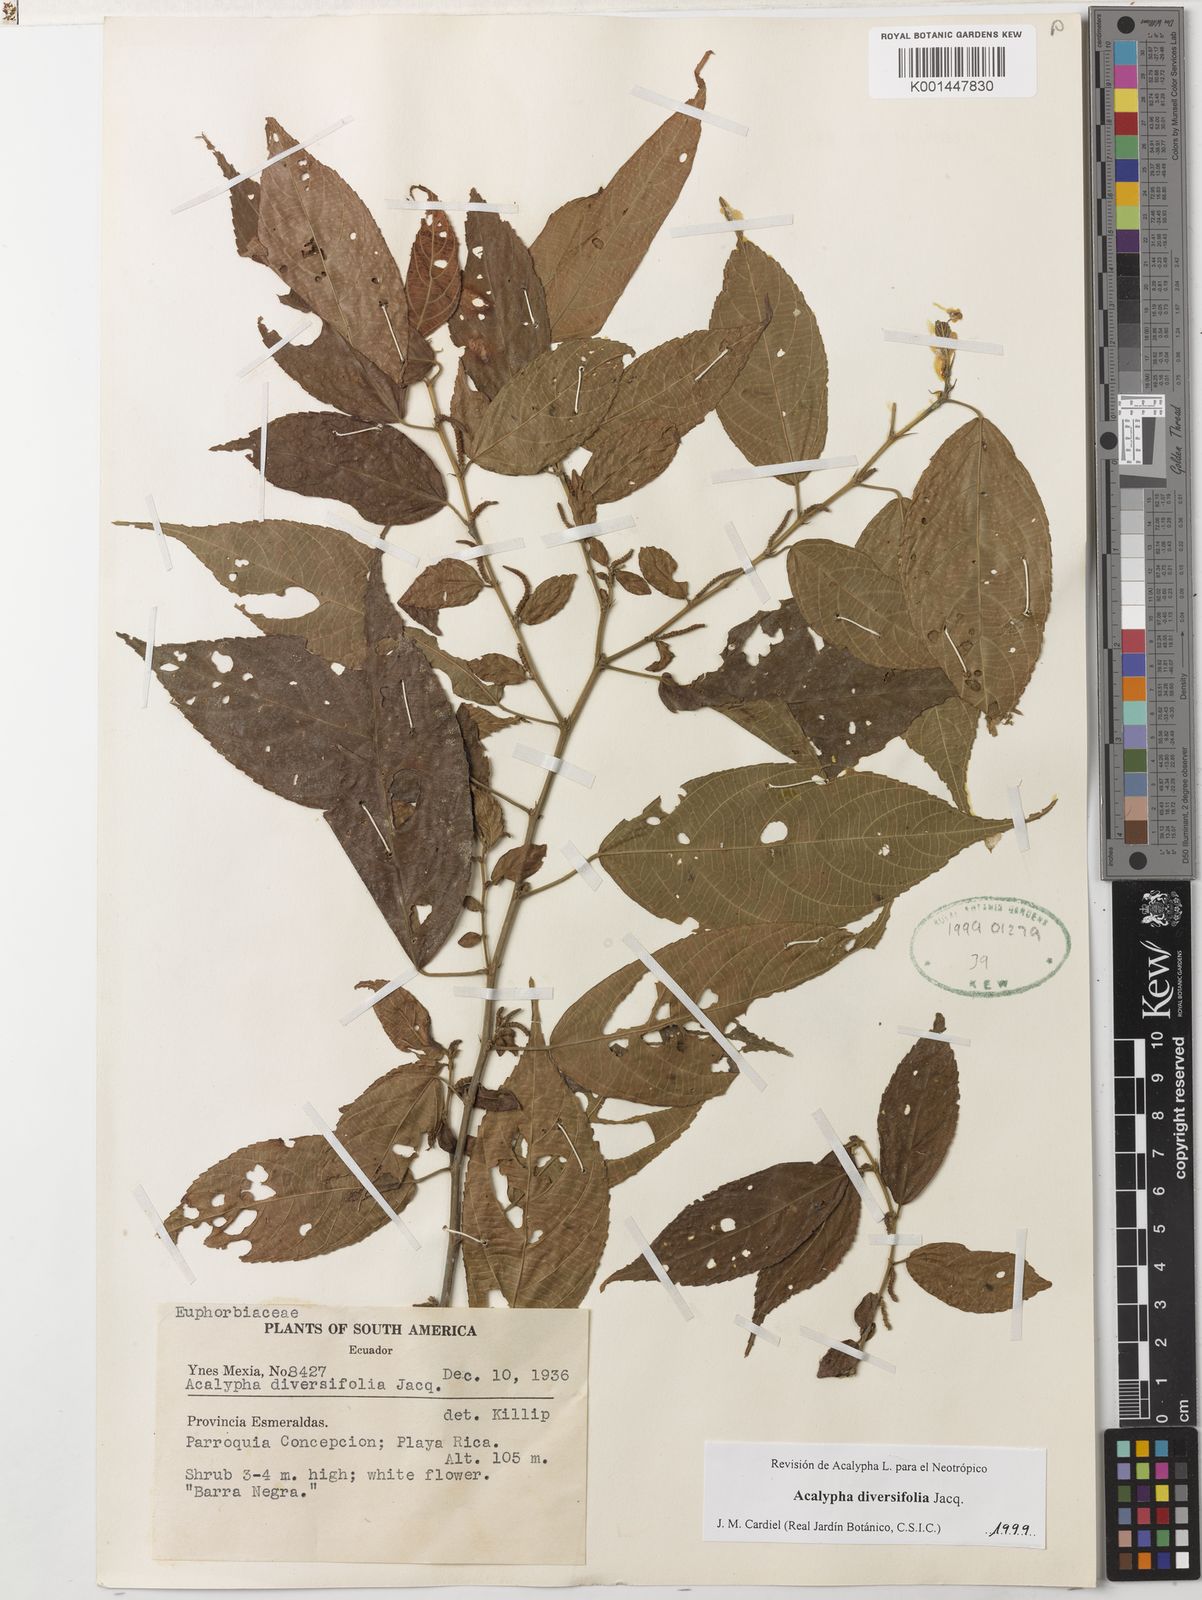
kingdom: Plantae
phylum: Tracheophyta
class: Magnoliopsida
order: Malpighiales
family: Euphorbiaceae
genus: Acalypha
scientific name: Acalypha diversifolia
